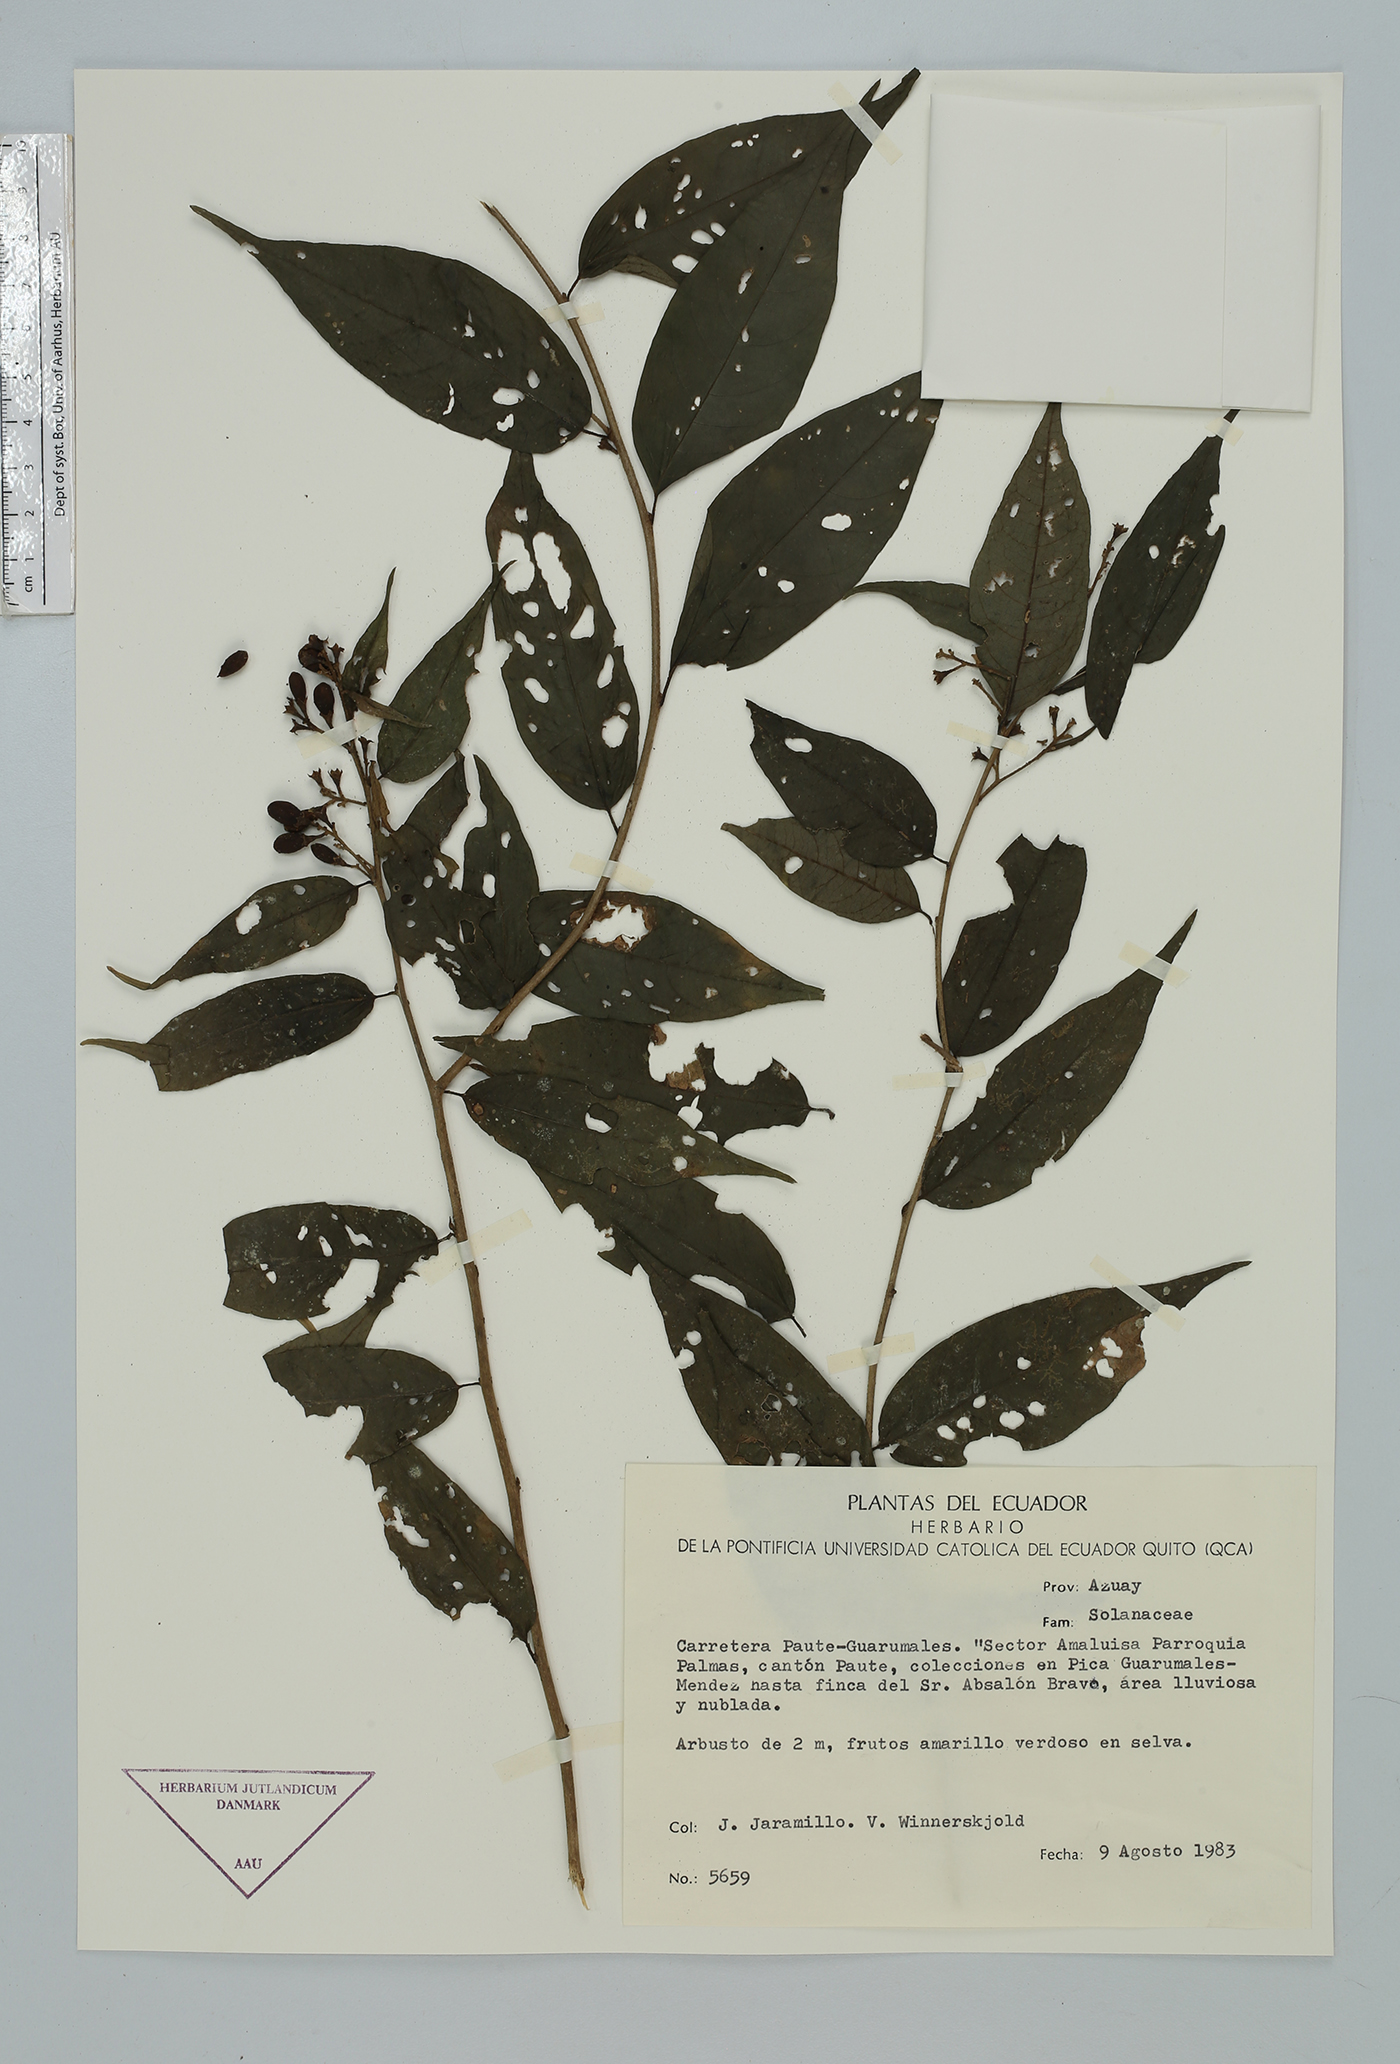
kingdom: Plantae
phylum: Tracheophyta
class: Magnoliopsida
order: Solanales
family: Solanaceae
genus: Cestrum
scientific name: Cestrum
